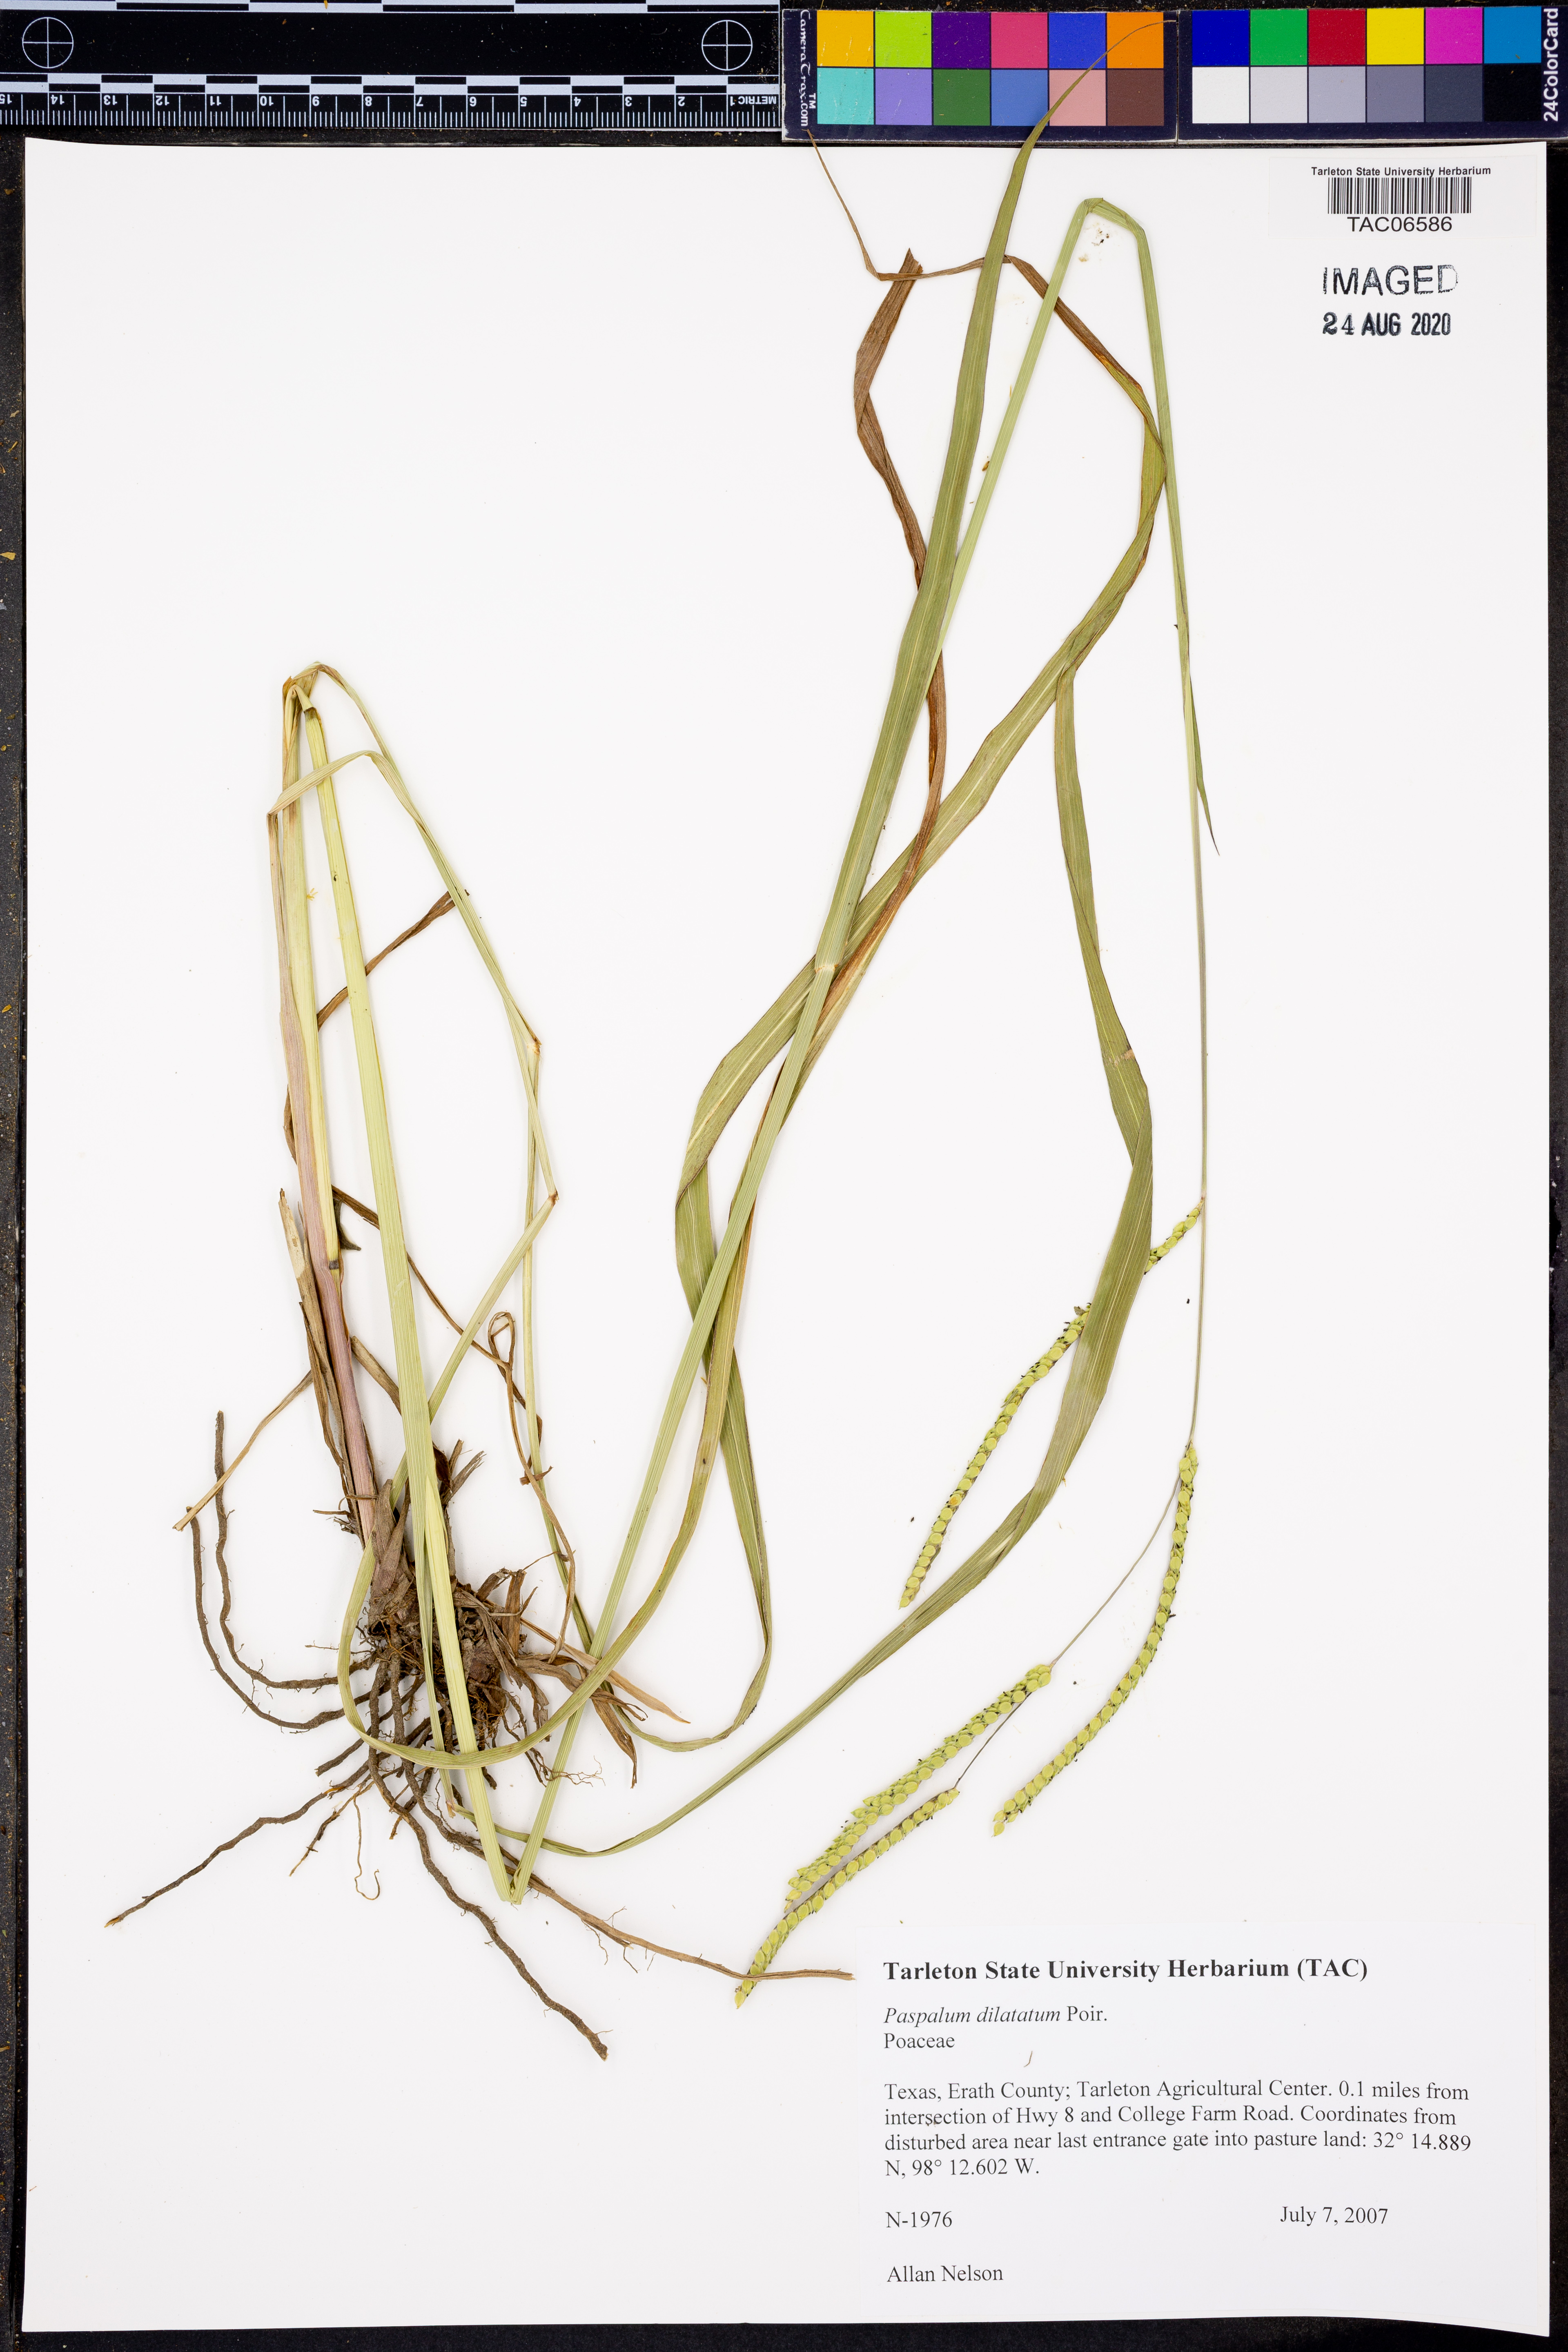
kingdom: Plantae
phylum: Tracheophyta
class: Liliopsida
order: Poales
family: Poaceae
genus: Paspalum
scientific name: Paspalum dilatatum
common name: Dallisgrass
